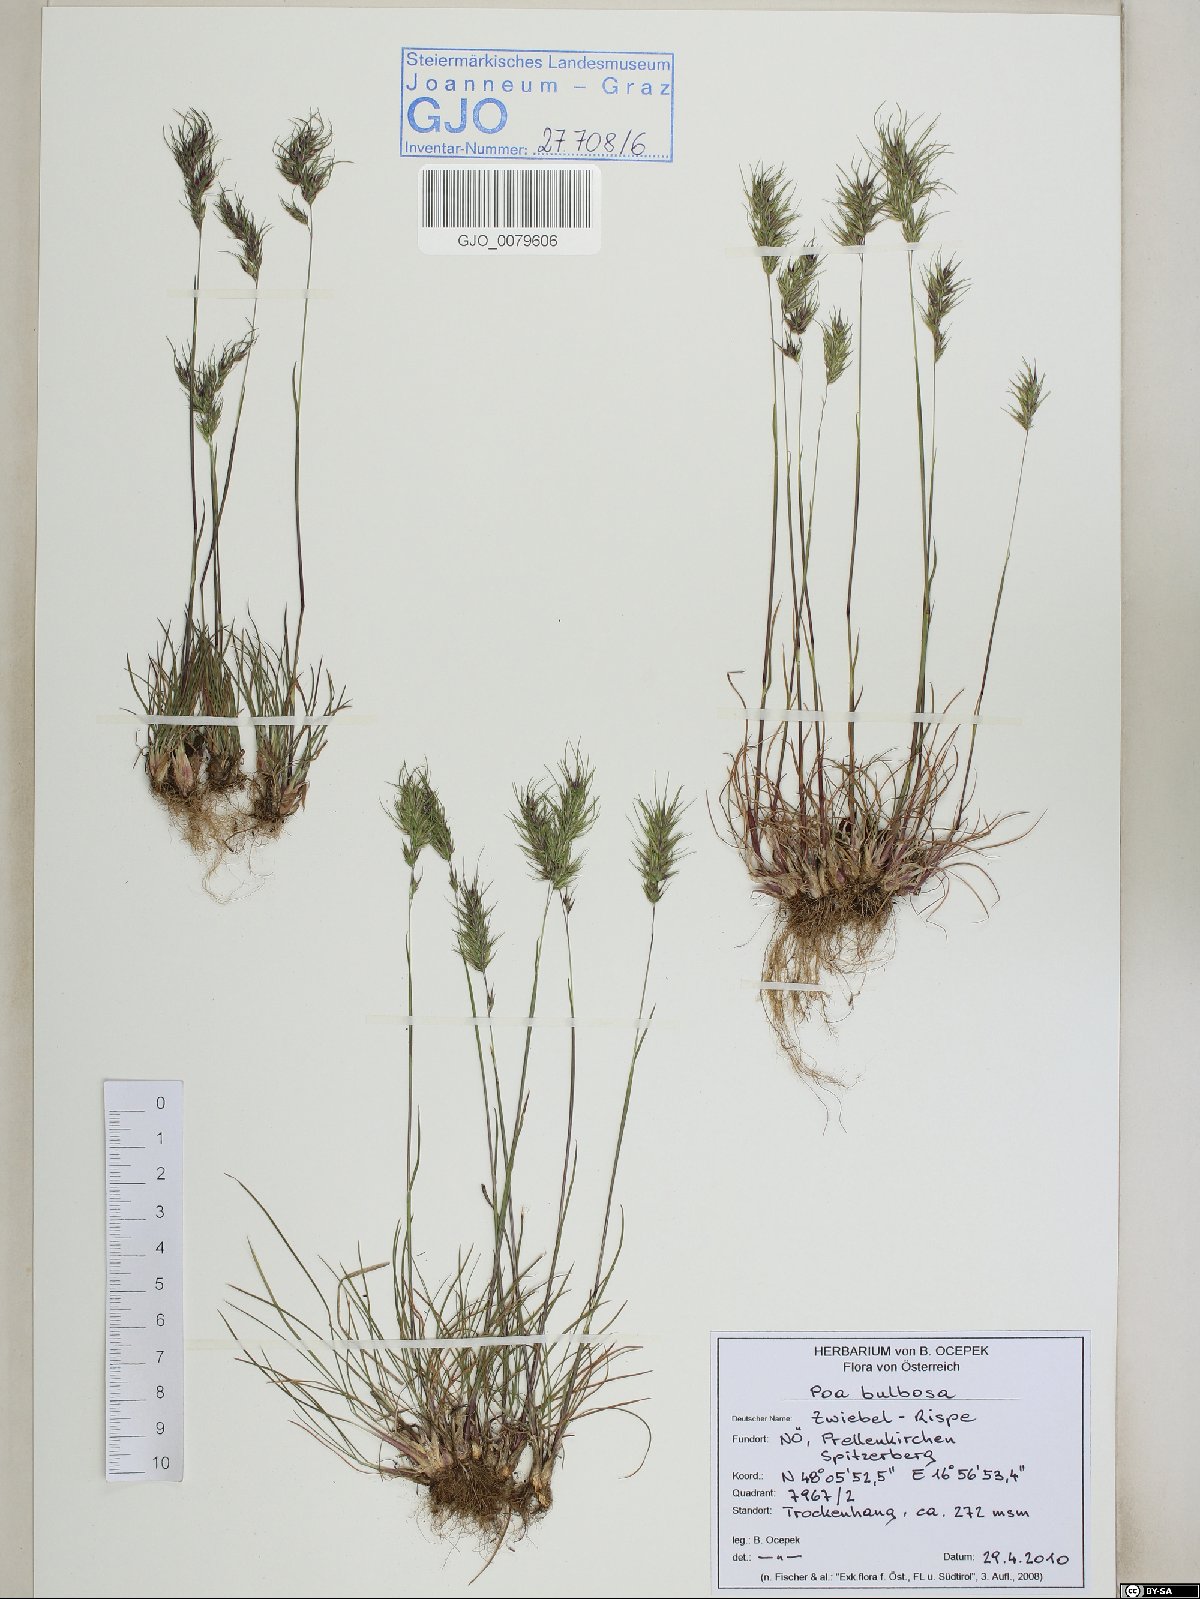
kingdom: Plantae
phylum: Tracheophyta
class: Liliopsida
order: Poales
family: Poaceae
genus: Poa
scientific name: Poa bulbosa
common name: Bulbous bluegrass
